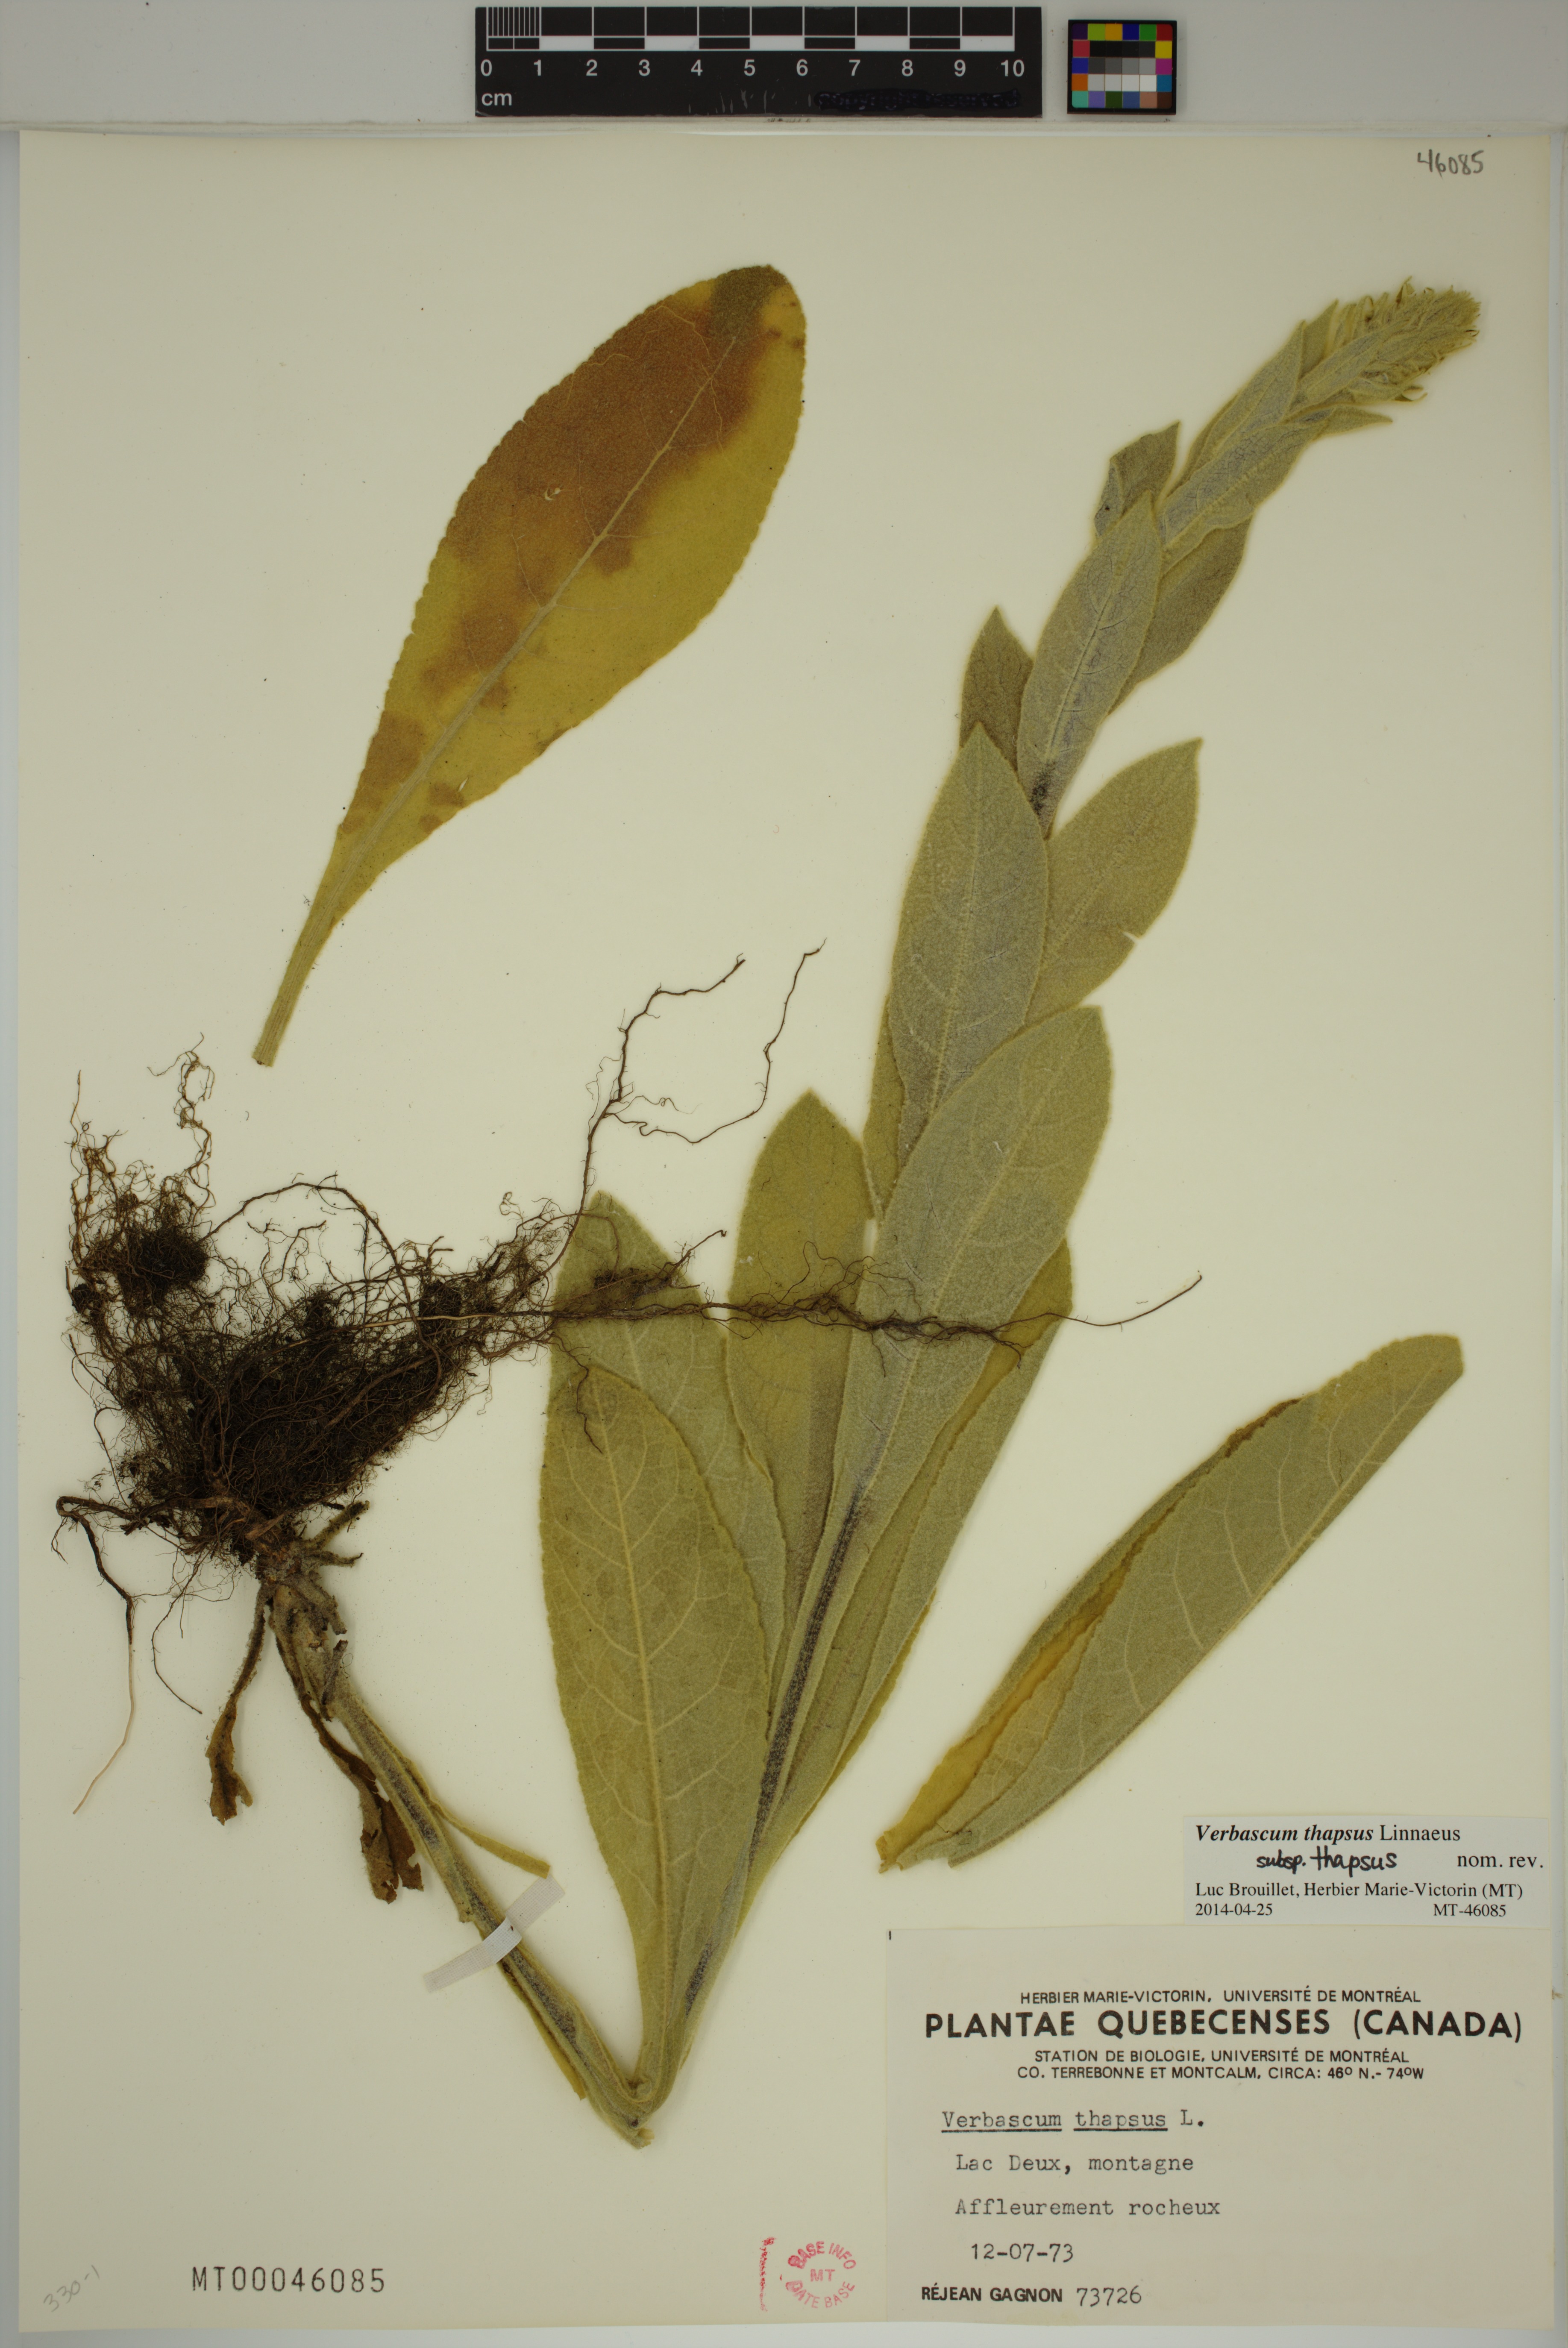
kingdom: Plantae
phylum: Tracheophyta
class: Magnoliopsida
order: Lamiales
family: Scrophulariaceae
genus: Verbascum
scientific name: Verbascum thapsus
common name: Common mullein
